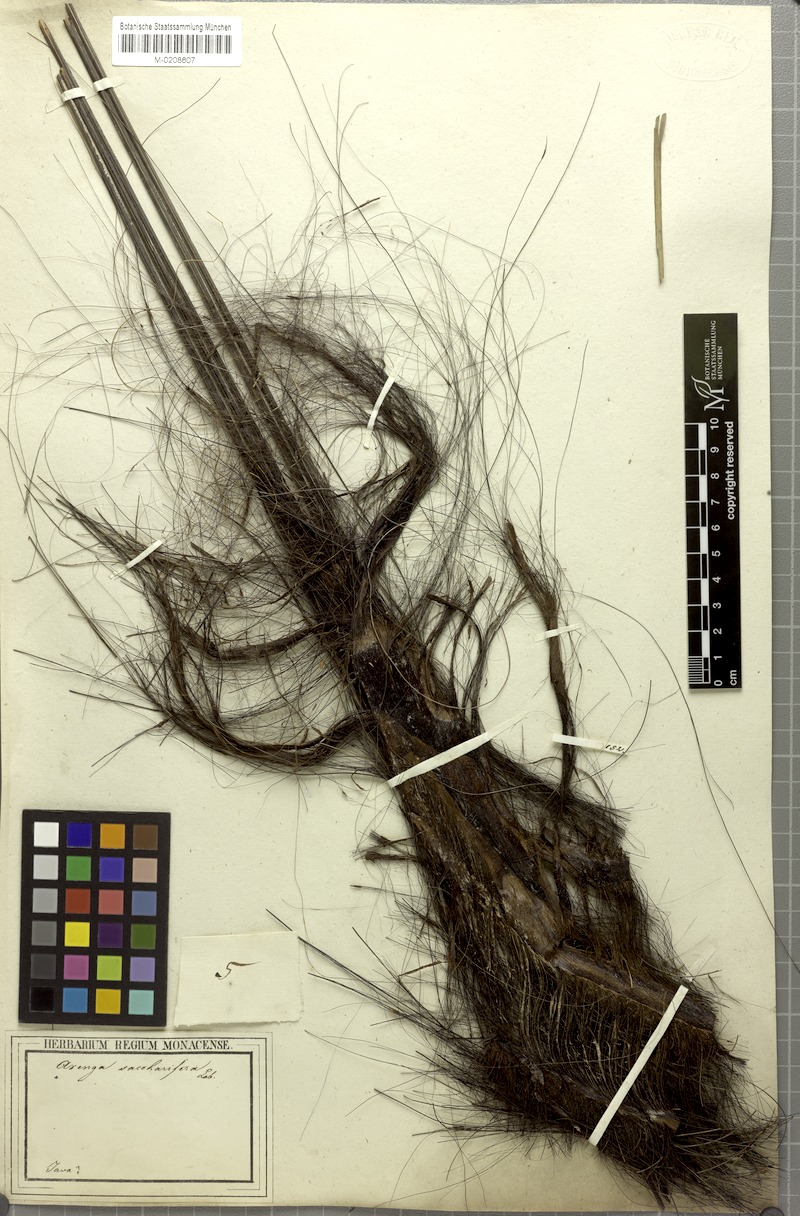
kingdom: Plantae
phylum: Tracheophyta
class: Liliopsida
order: Arecales
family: Arecaceae
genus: Arenga
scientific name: Arenga pinnata
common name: Black-fiber palm
